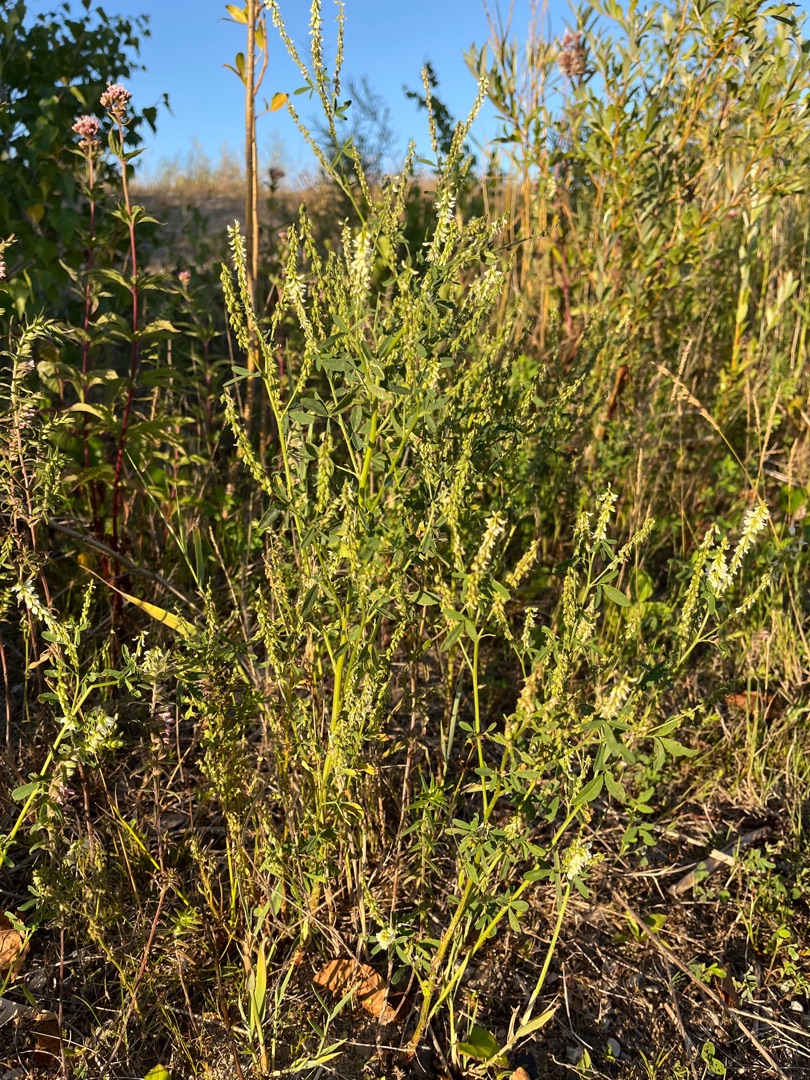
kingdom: Plantae
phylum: Tracheophyta
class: Magnoliopsida
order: Fabales
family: Fabaceae
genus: Melilotus
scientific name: Melilotus albus
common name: Hvid stenkløver
